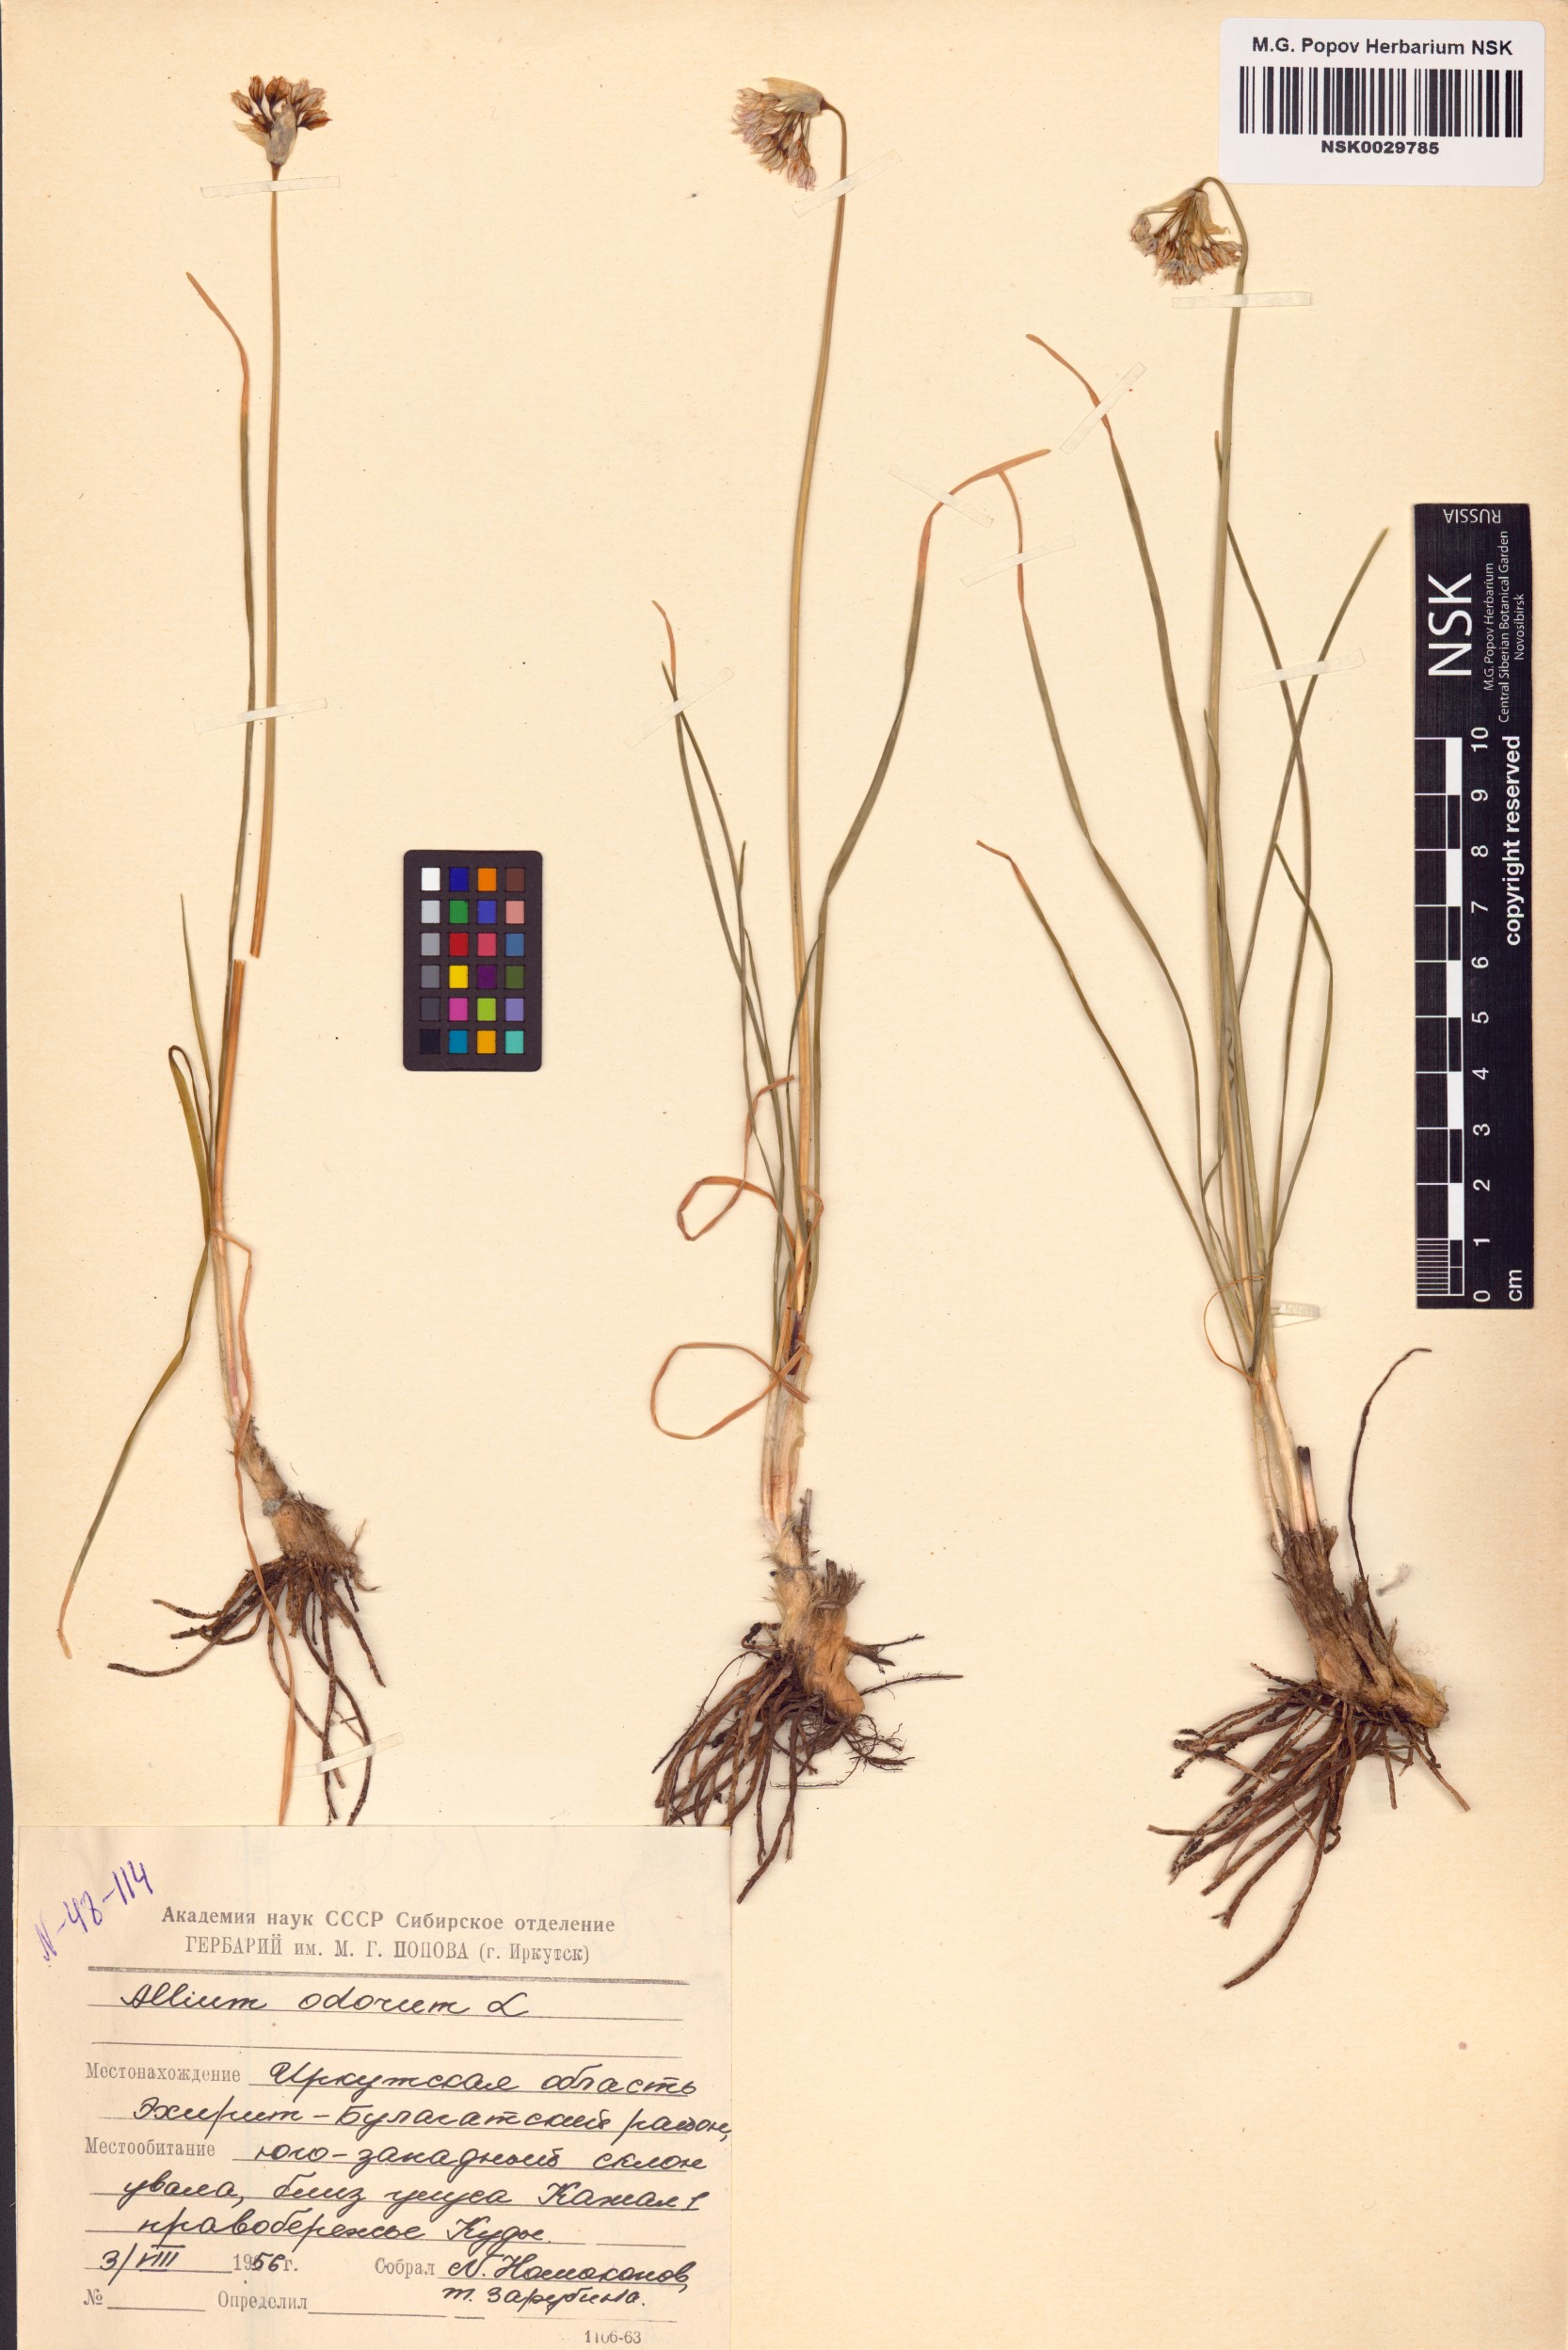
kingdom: Plantae
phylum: Tracheophyta
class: Liliopsida
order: Asparagales
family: Amaryllidaceae
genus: Allium
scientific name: Allium ramosum
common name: Fragrant garlic
